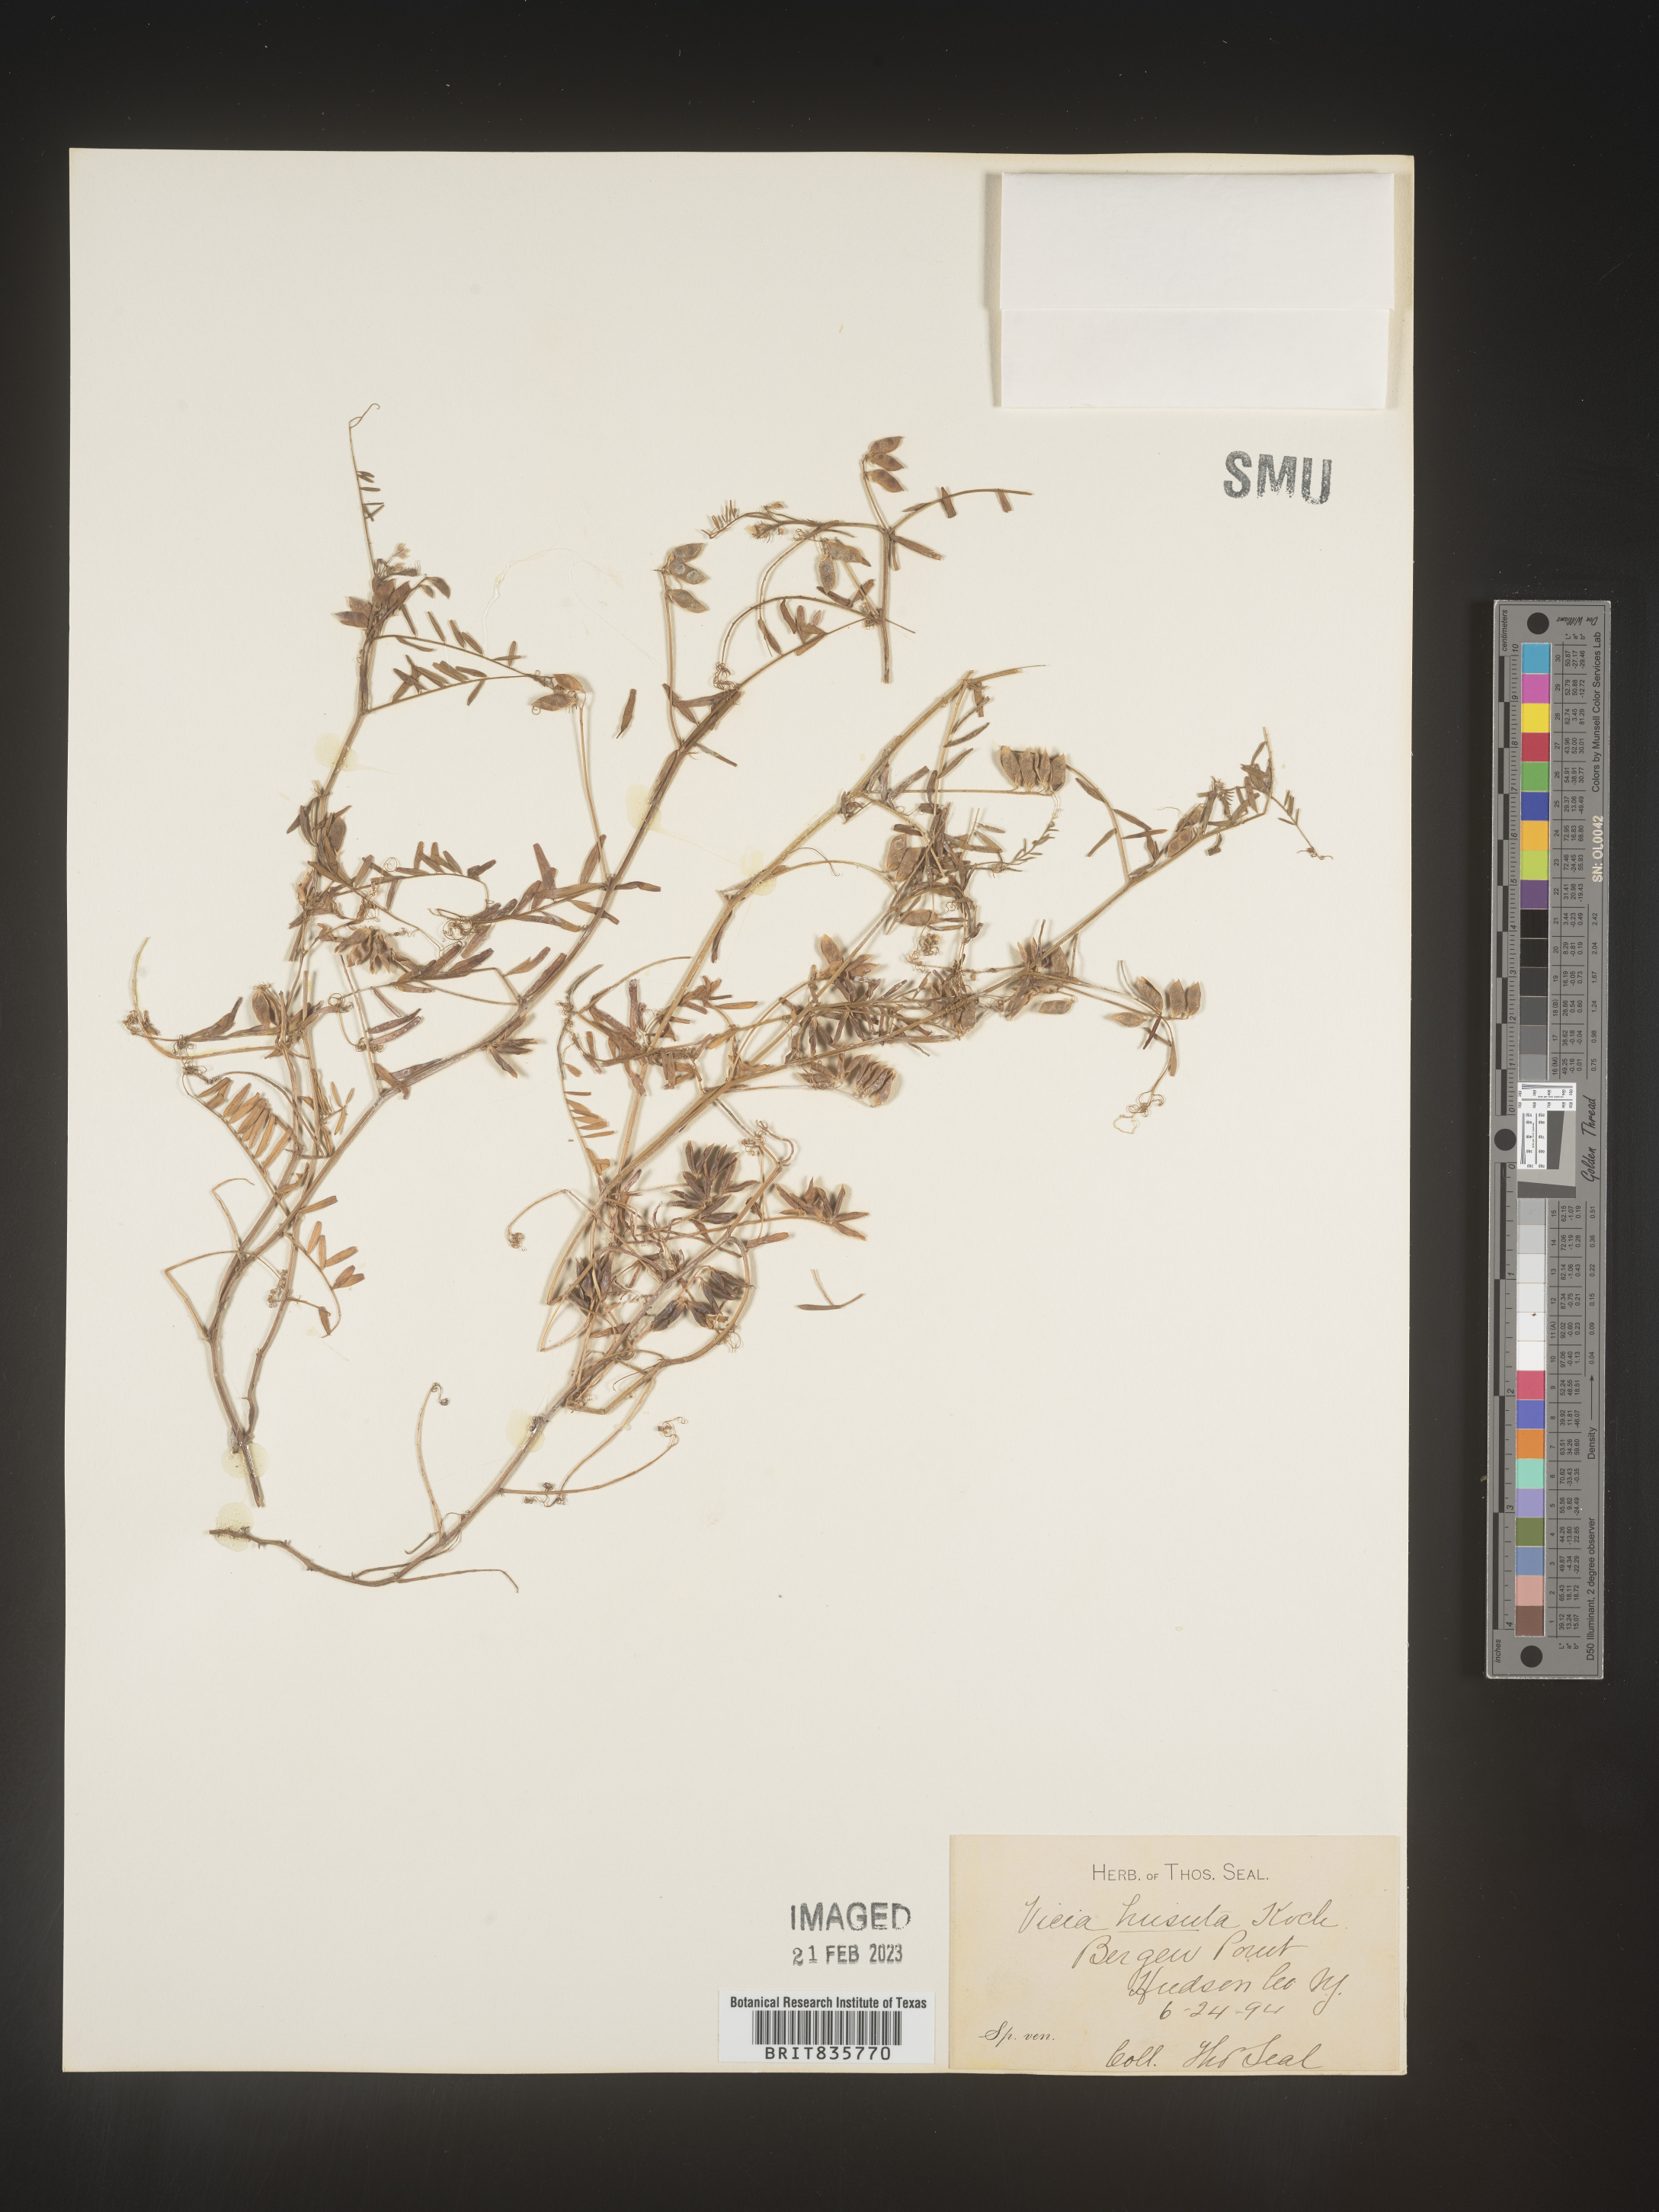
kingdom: Plantae
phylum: Tracheophyta
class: Magnoliopsida
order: Fabales
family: Fabaceae
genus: Vicia
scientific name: Vicia
